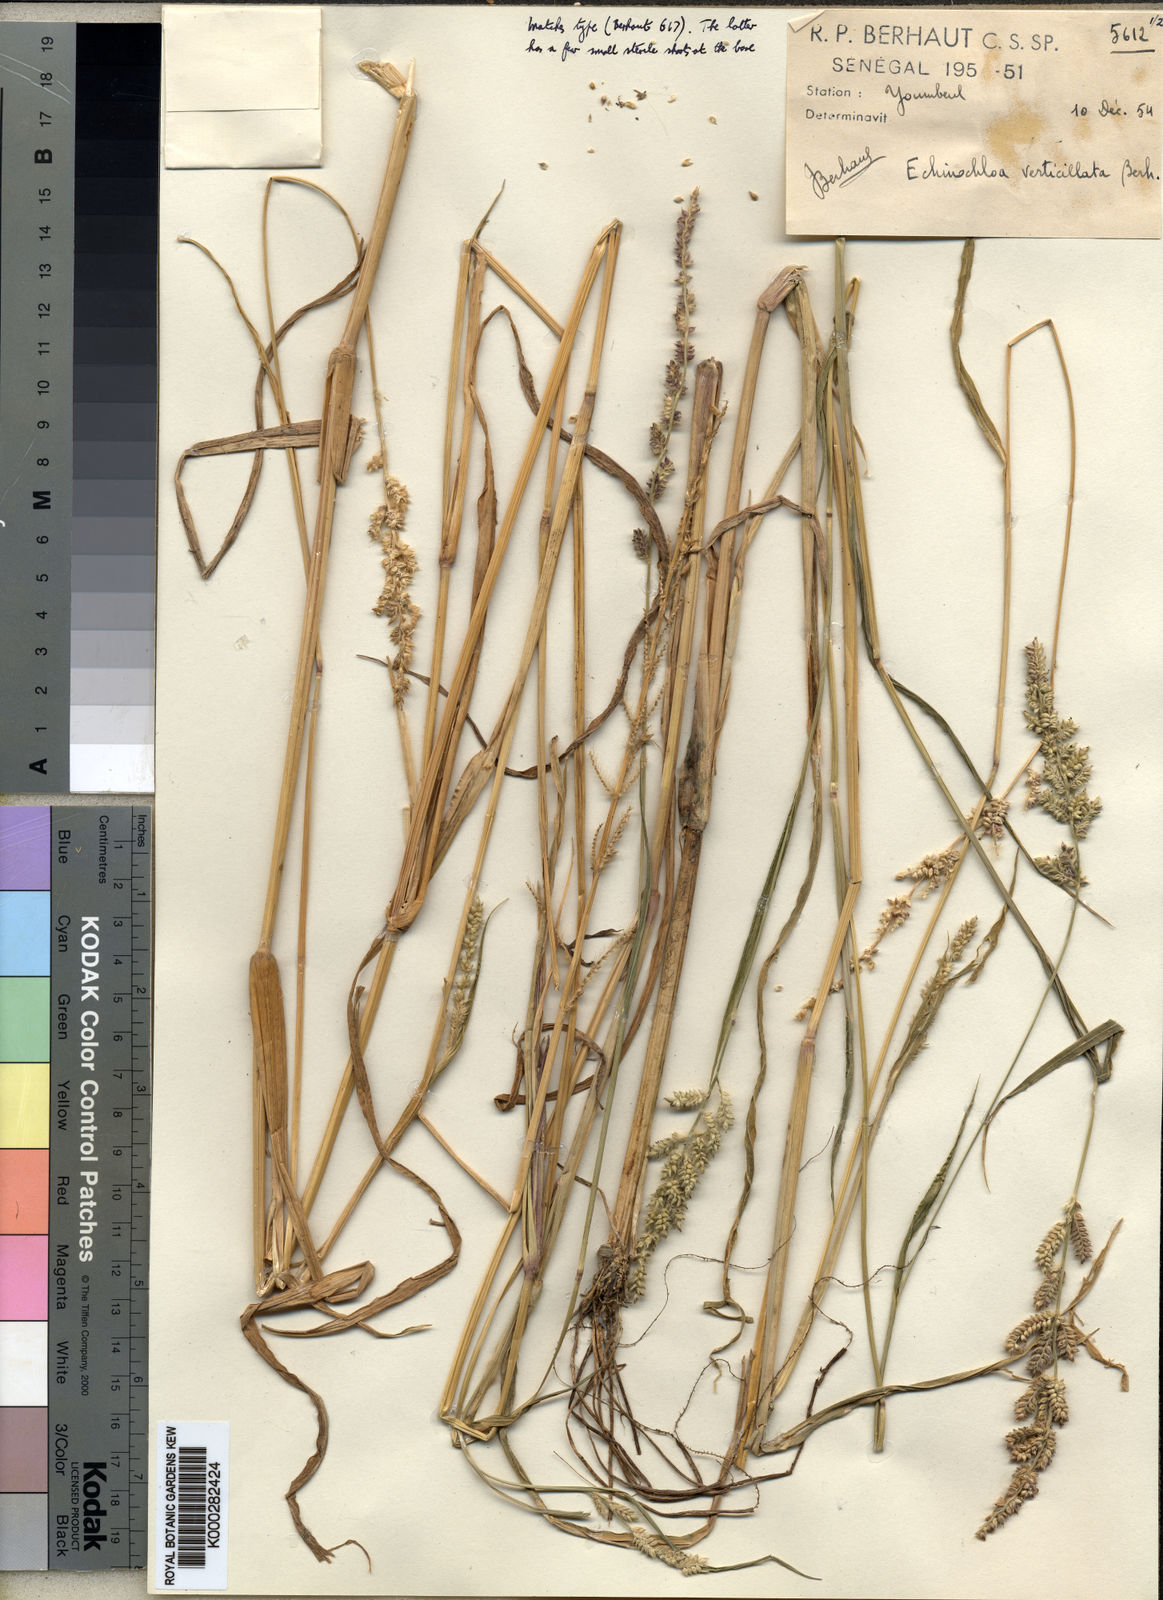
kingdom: Plantae
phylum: Tracheophyta
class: Liliopsida
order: Poales
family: Poaceae
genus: Echinochloa
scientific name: Echinochloa pyramidalis
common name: Antelope grass
